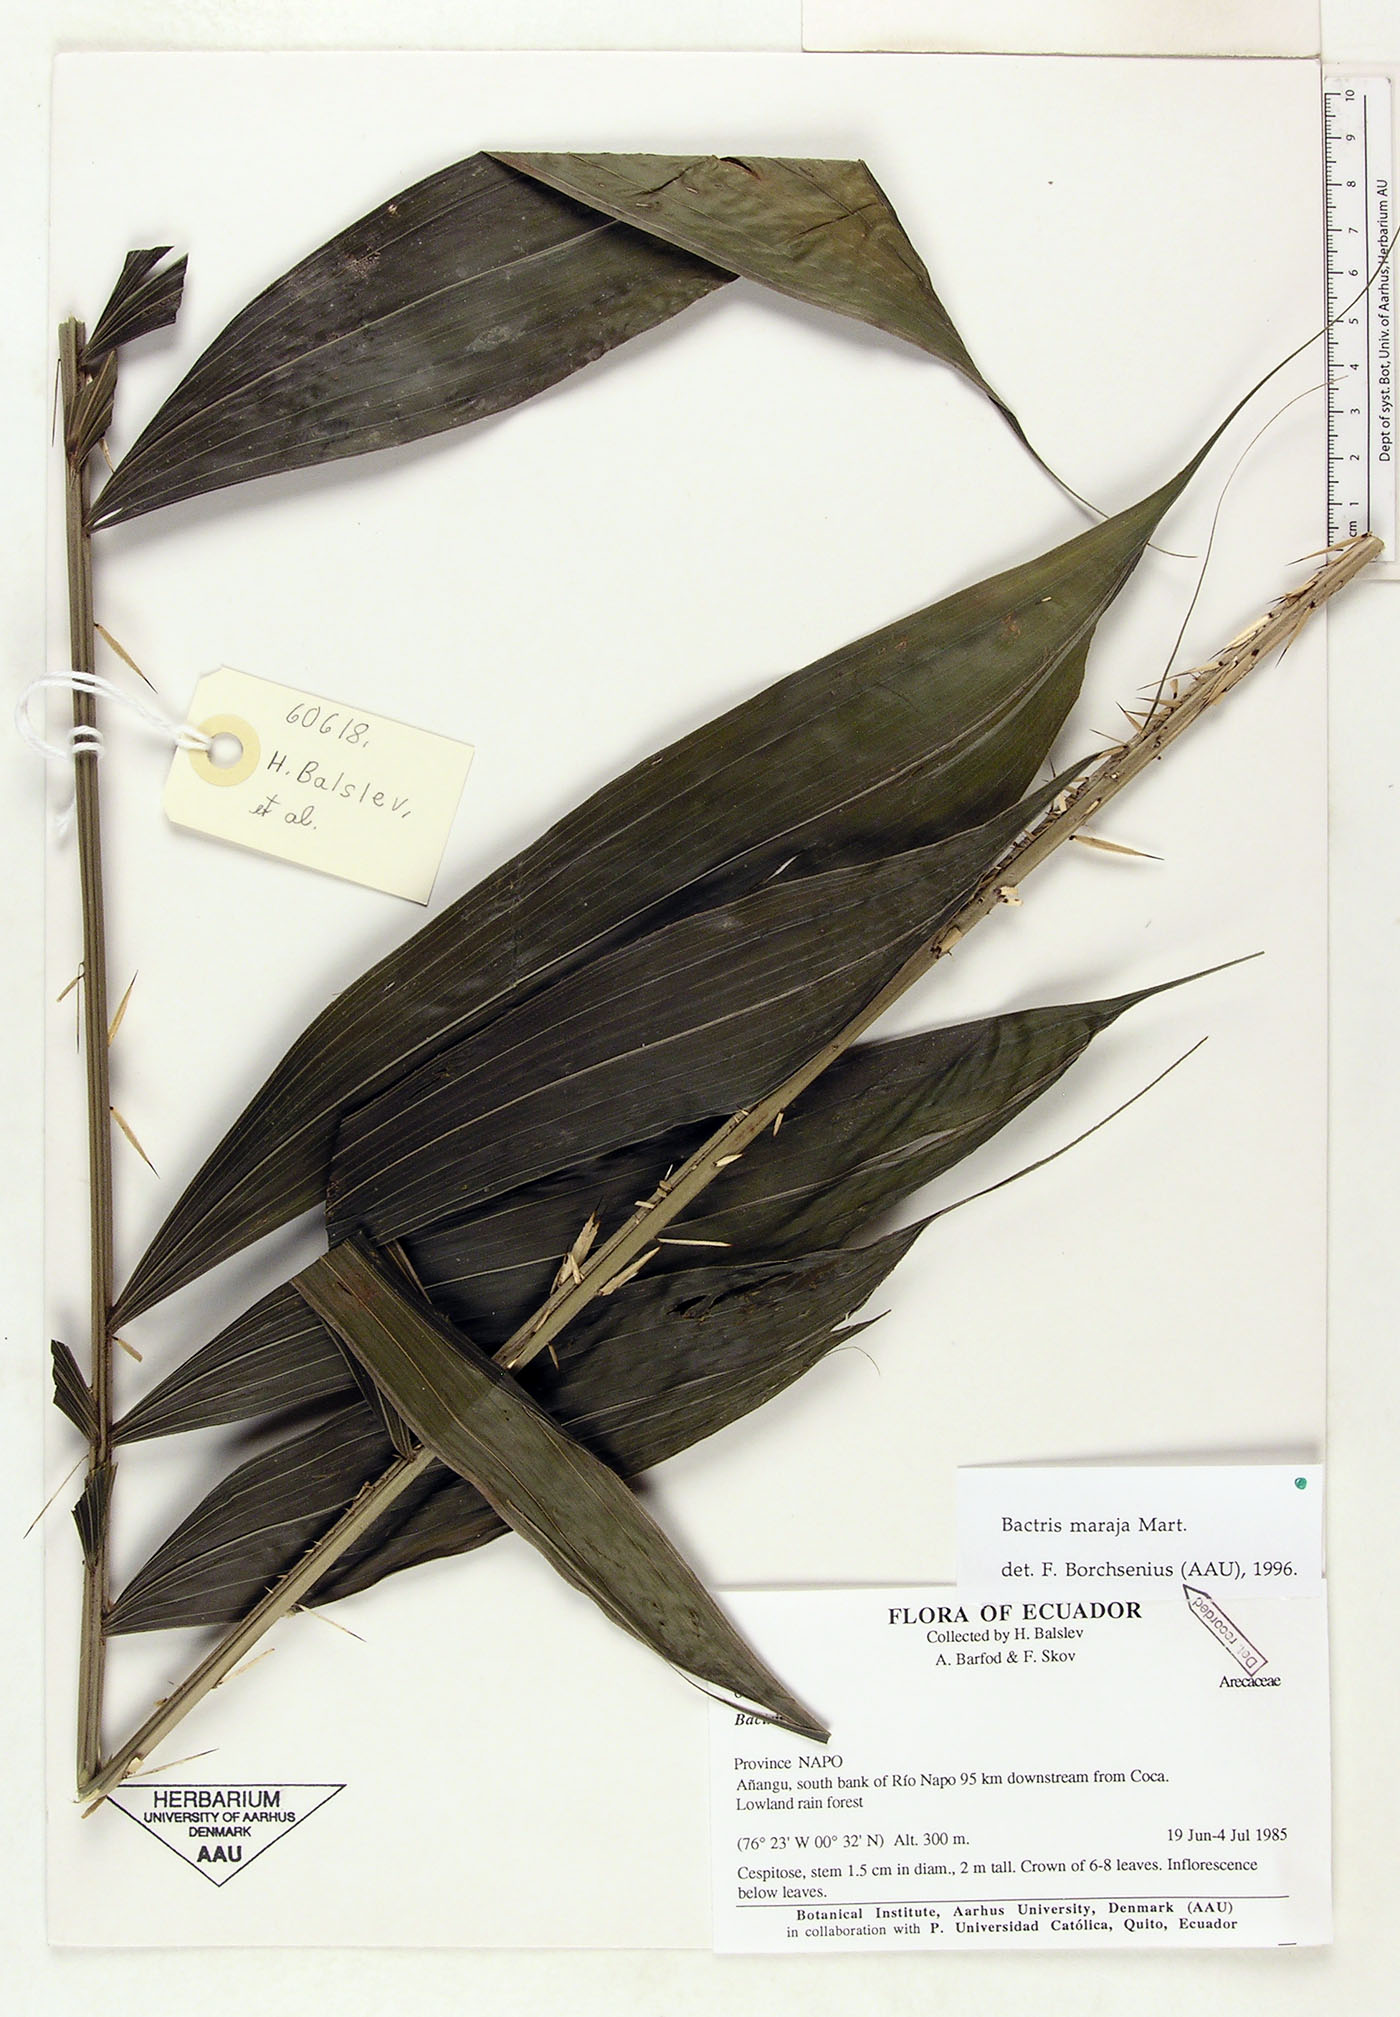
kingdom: Plantae
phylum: Tracheophyta
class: Liliopsida
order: Arecales
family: Arecaceae
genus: Bactris
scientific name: Bactris maraja
